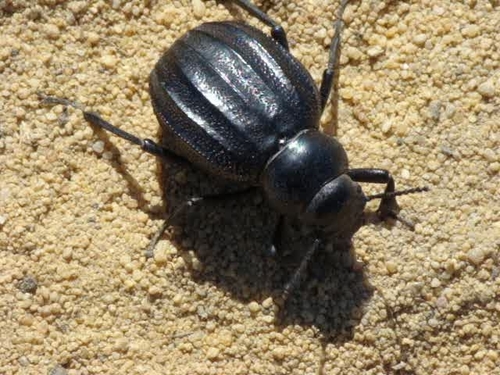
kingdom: Animalia
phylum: Arthropoda
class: Insecta
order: Coleoptera
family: Tenebrionidae
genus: Pimelia
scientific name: Pimelia costata
